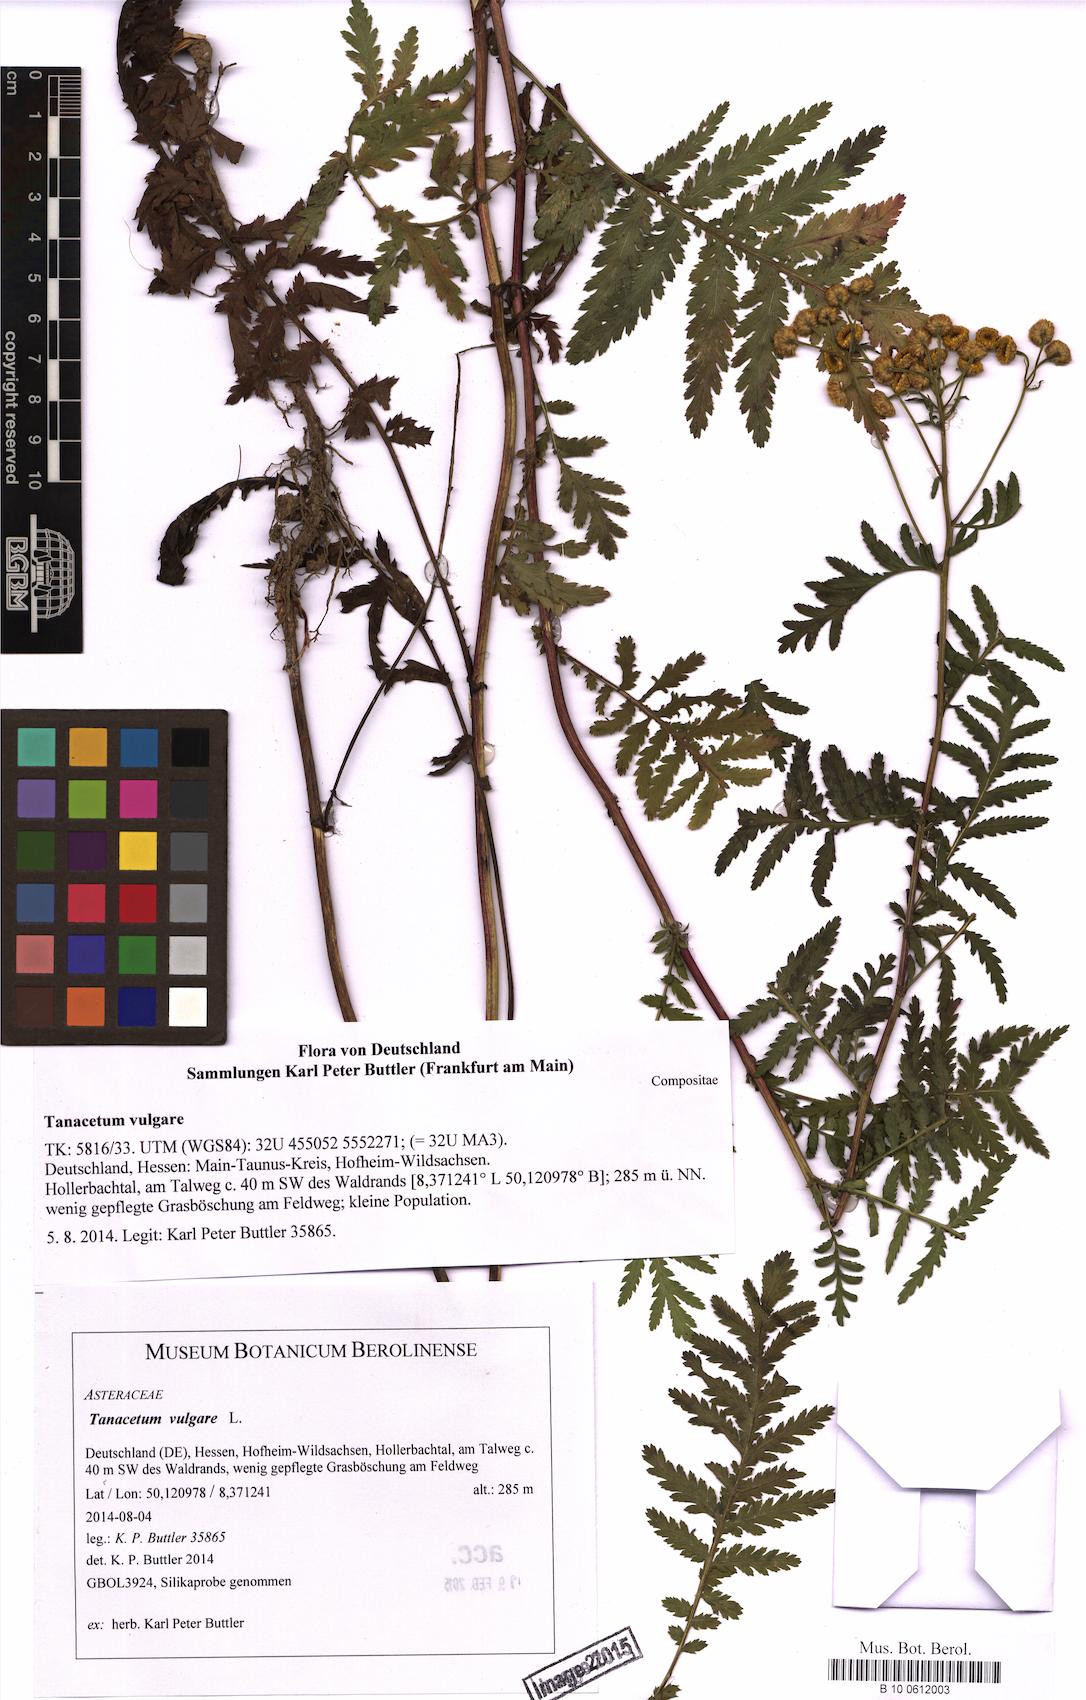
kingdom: Plantae
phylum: Tracheophyta
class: Magnoliopsida
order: Asterales
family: Asteraceae
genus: Tanacetum
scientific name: Tanacetum vulgare
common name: Common tansy
